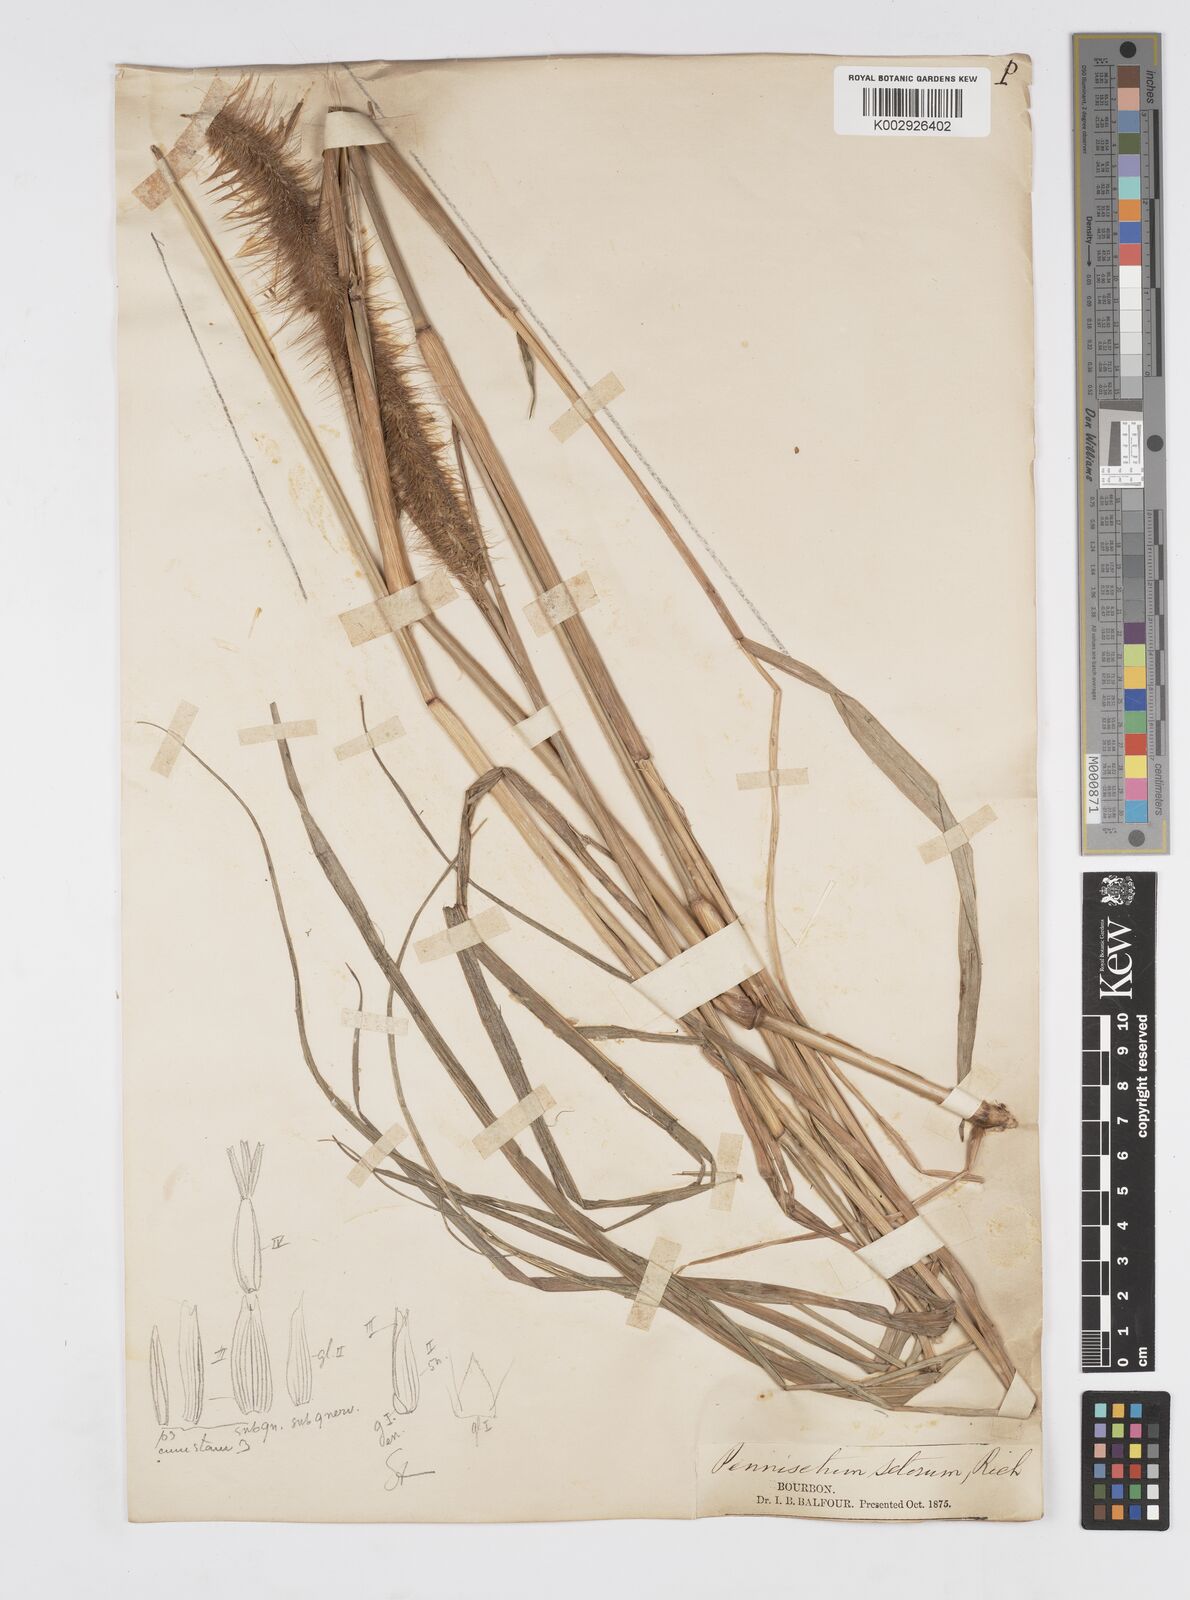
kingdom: Plantae
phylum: Tracheophyta
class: Liliopsida
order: Poales
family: Poaceae
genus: Setaria
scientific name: Setaria parviflora
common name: Knotroot bristle-grass
